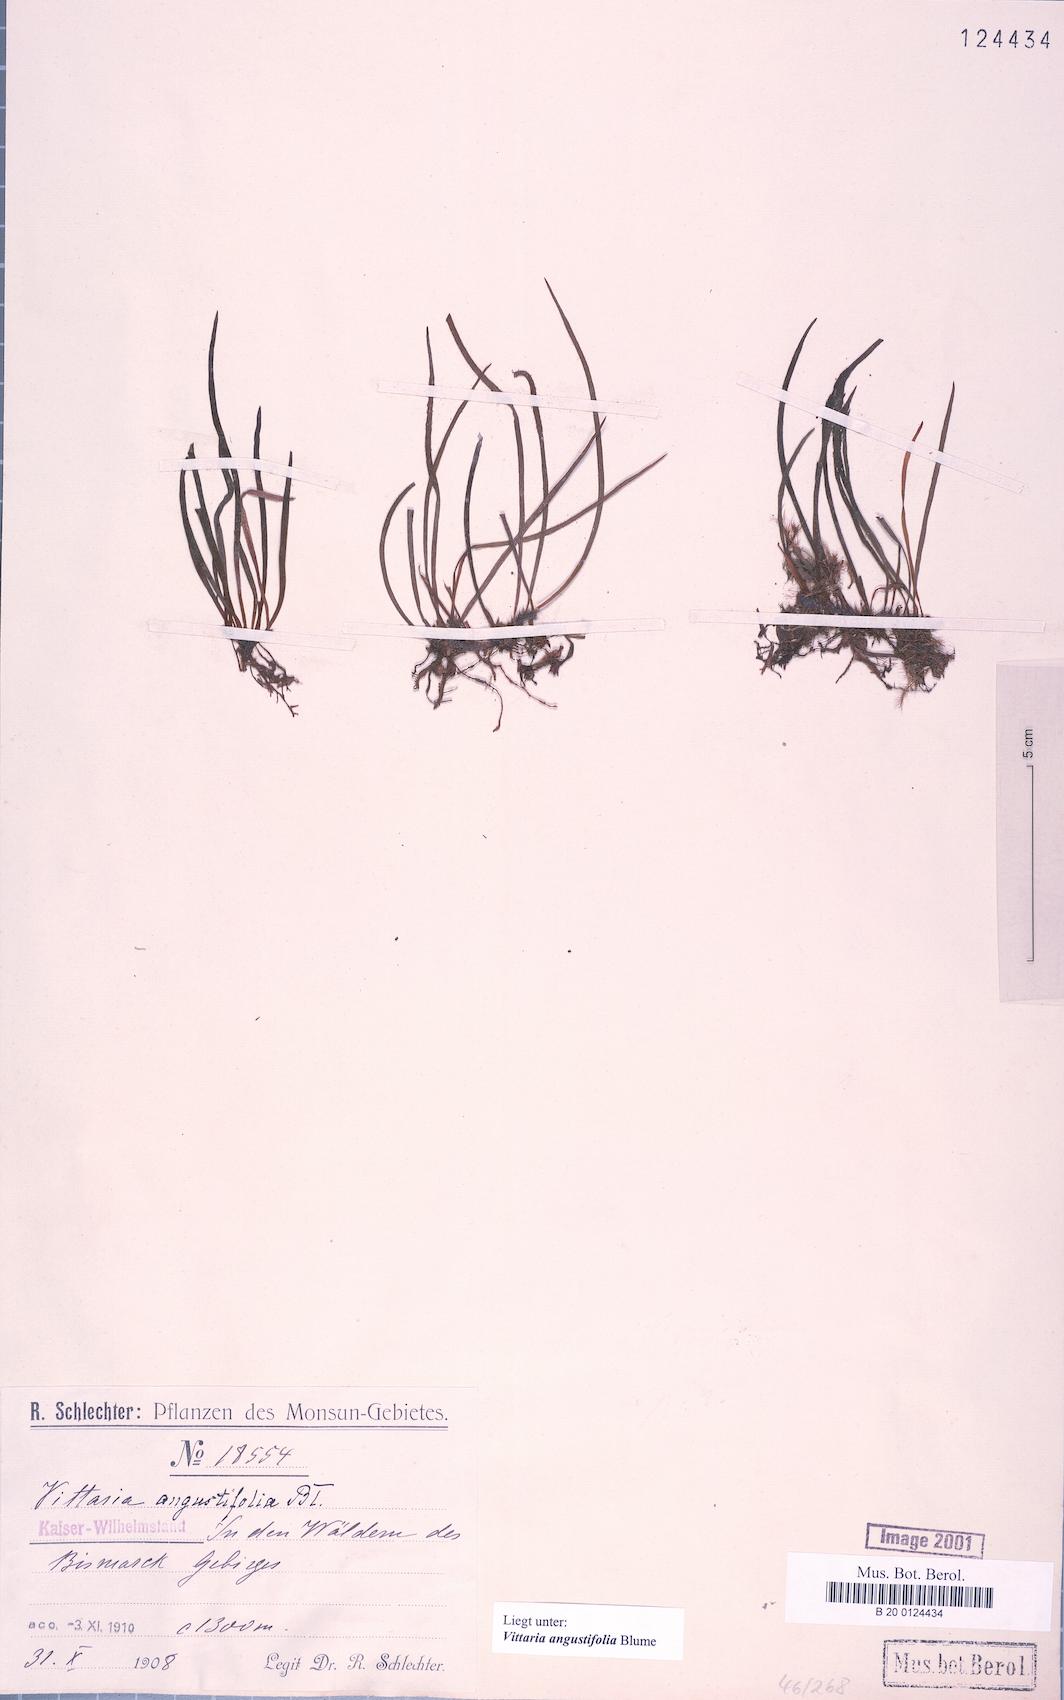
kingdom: Plantae
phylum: Tracheophyta
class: Polypodiopsida
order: Polypodiales
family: Pteridaceae
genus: Ananthacorus
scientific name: Ananthacorus angustifolius
